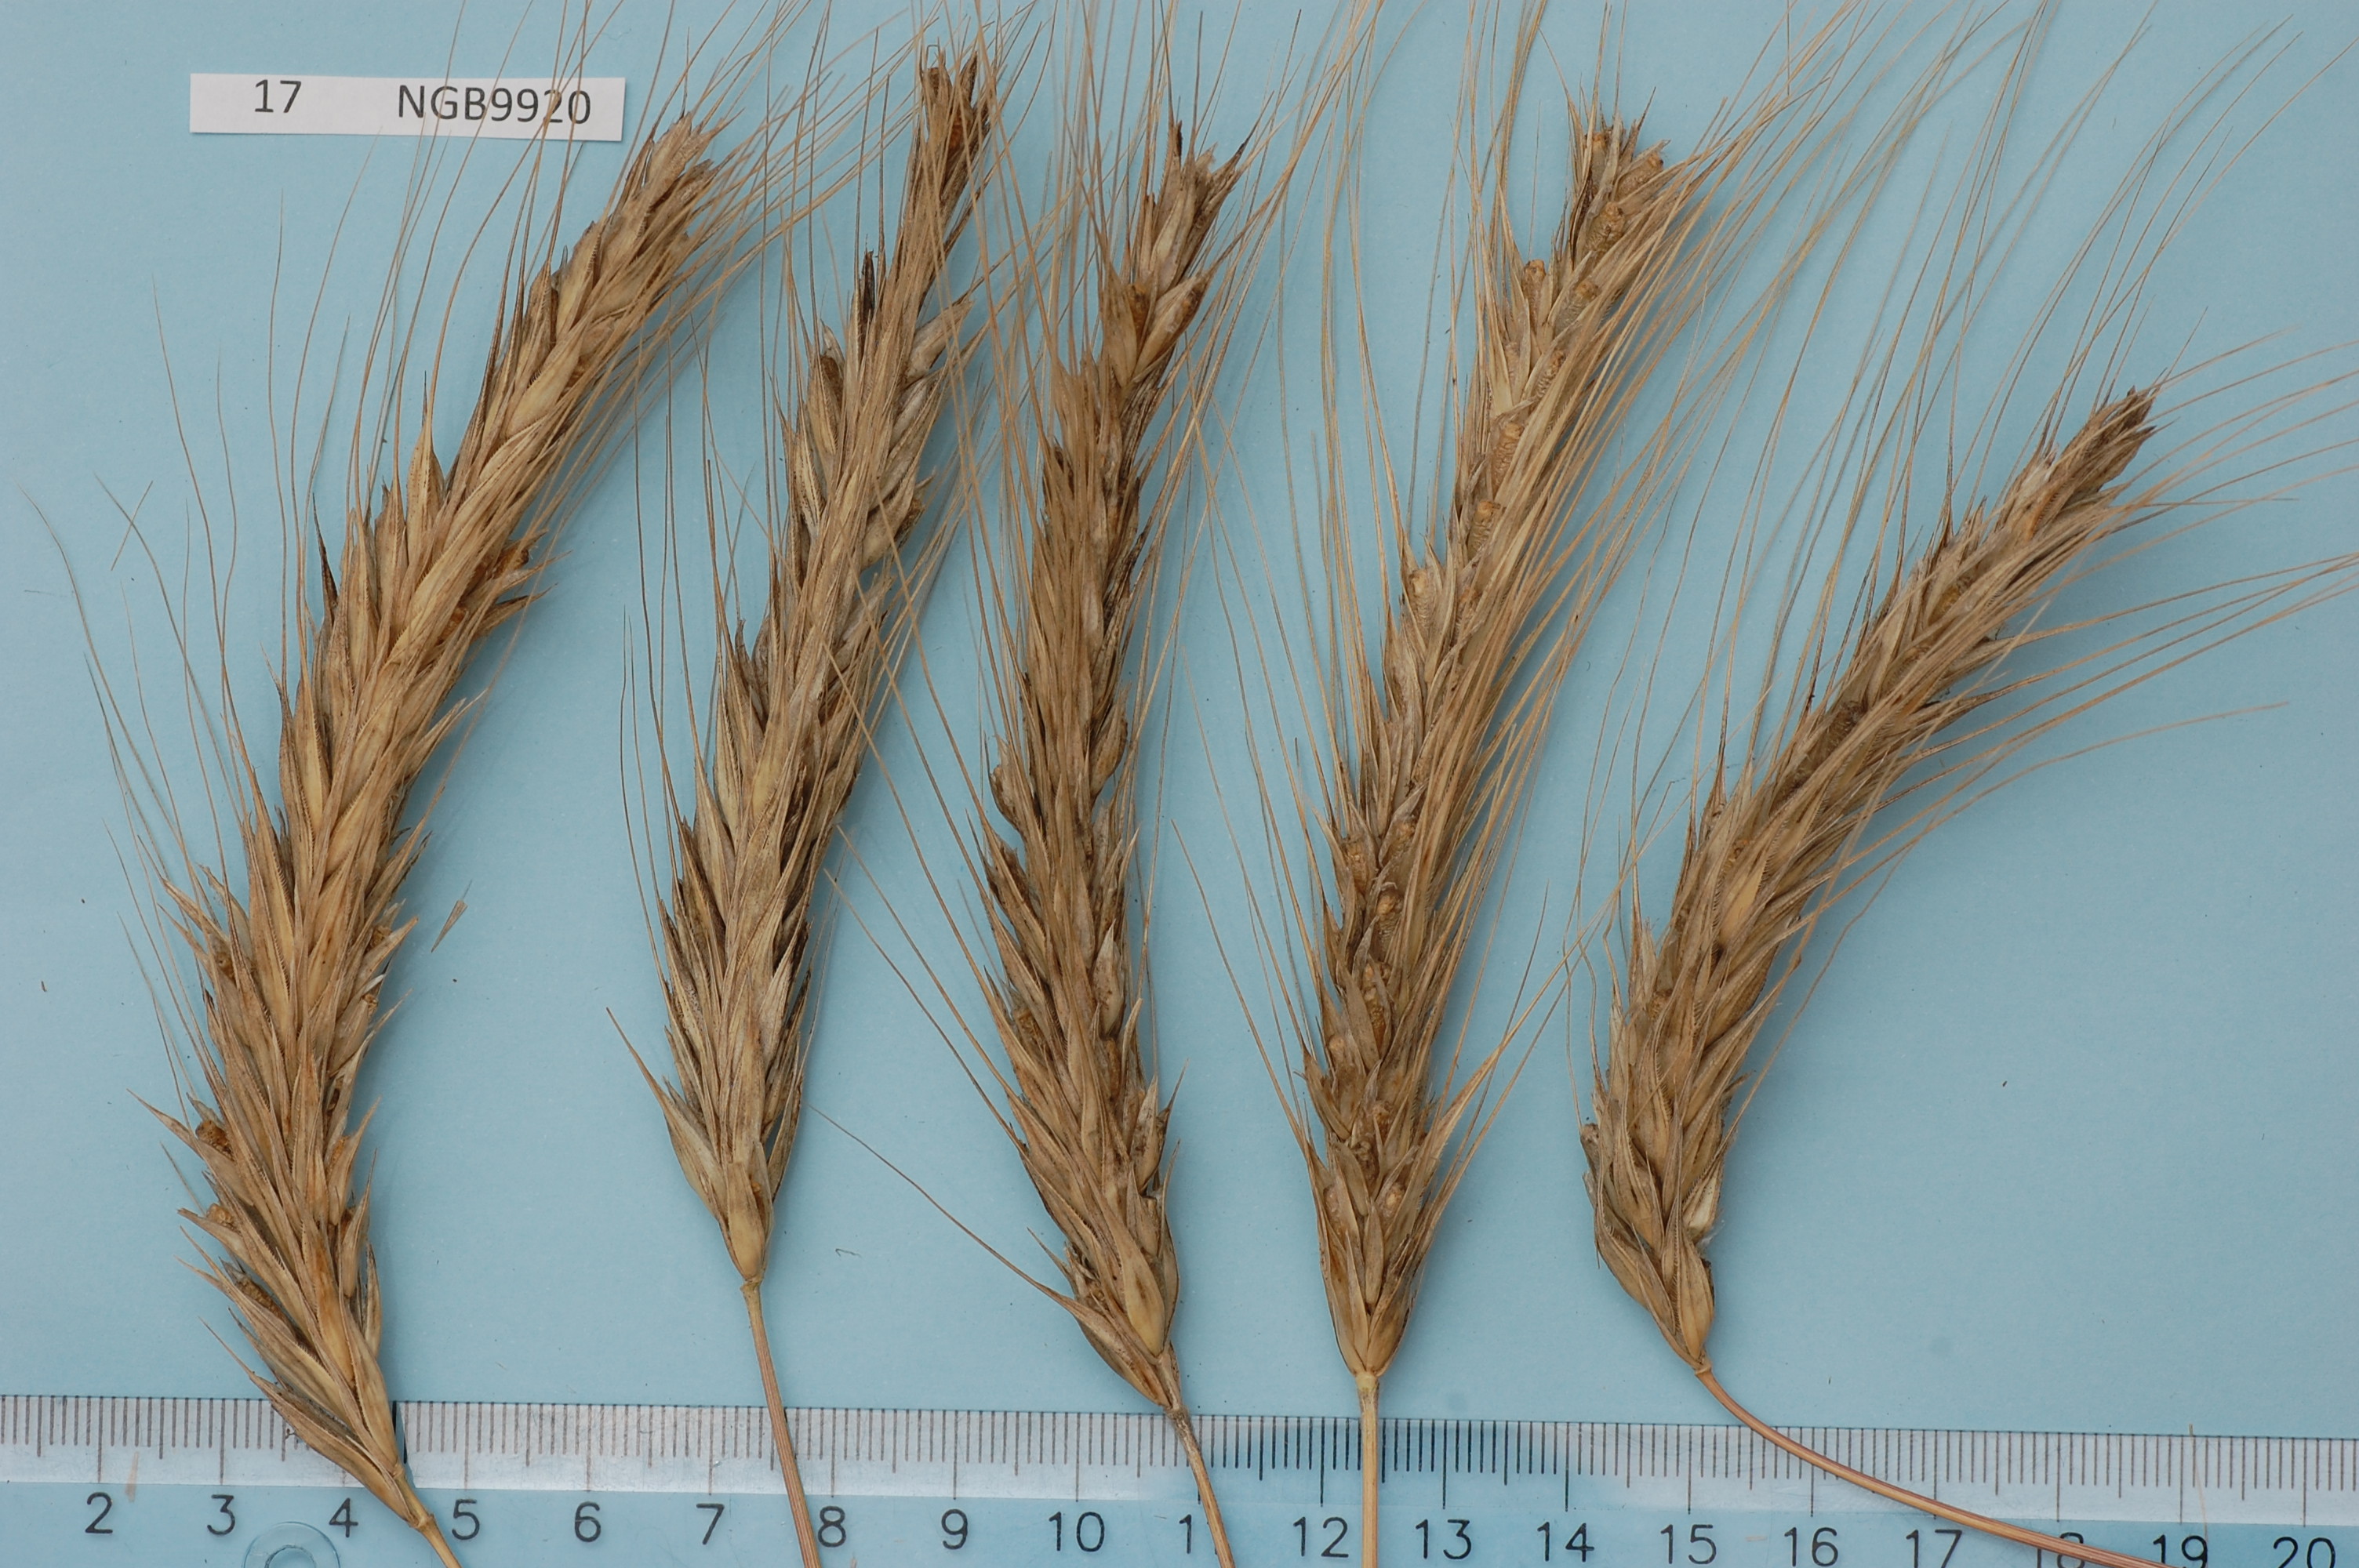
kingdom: Plantae
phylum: Tracheophyta
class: Liliopsida
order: Poales
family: Poaceae
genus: Secale
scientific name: Secale cereale
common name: Rye
